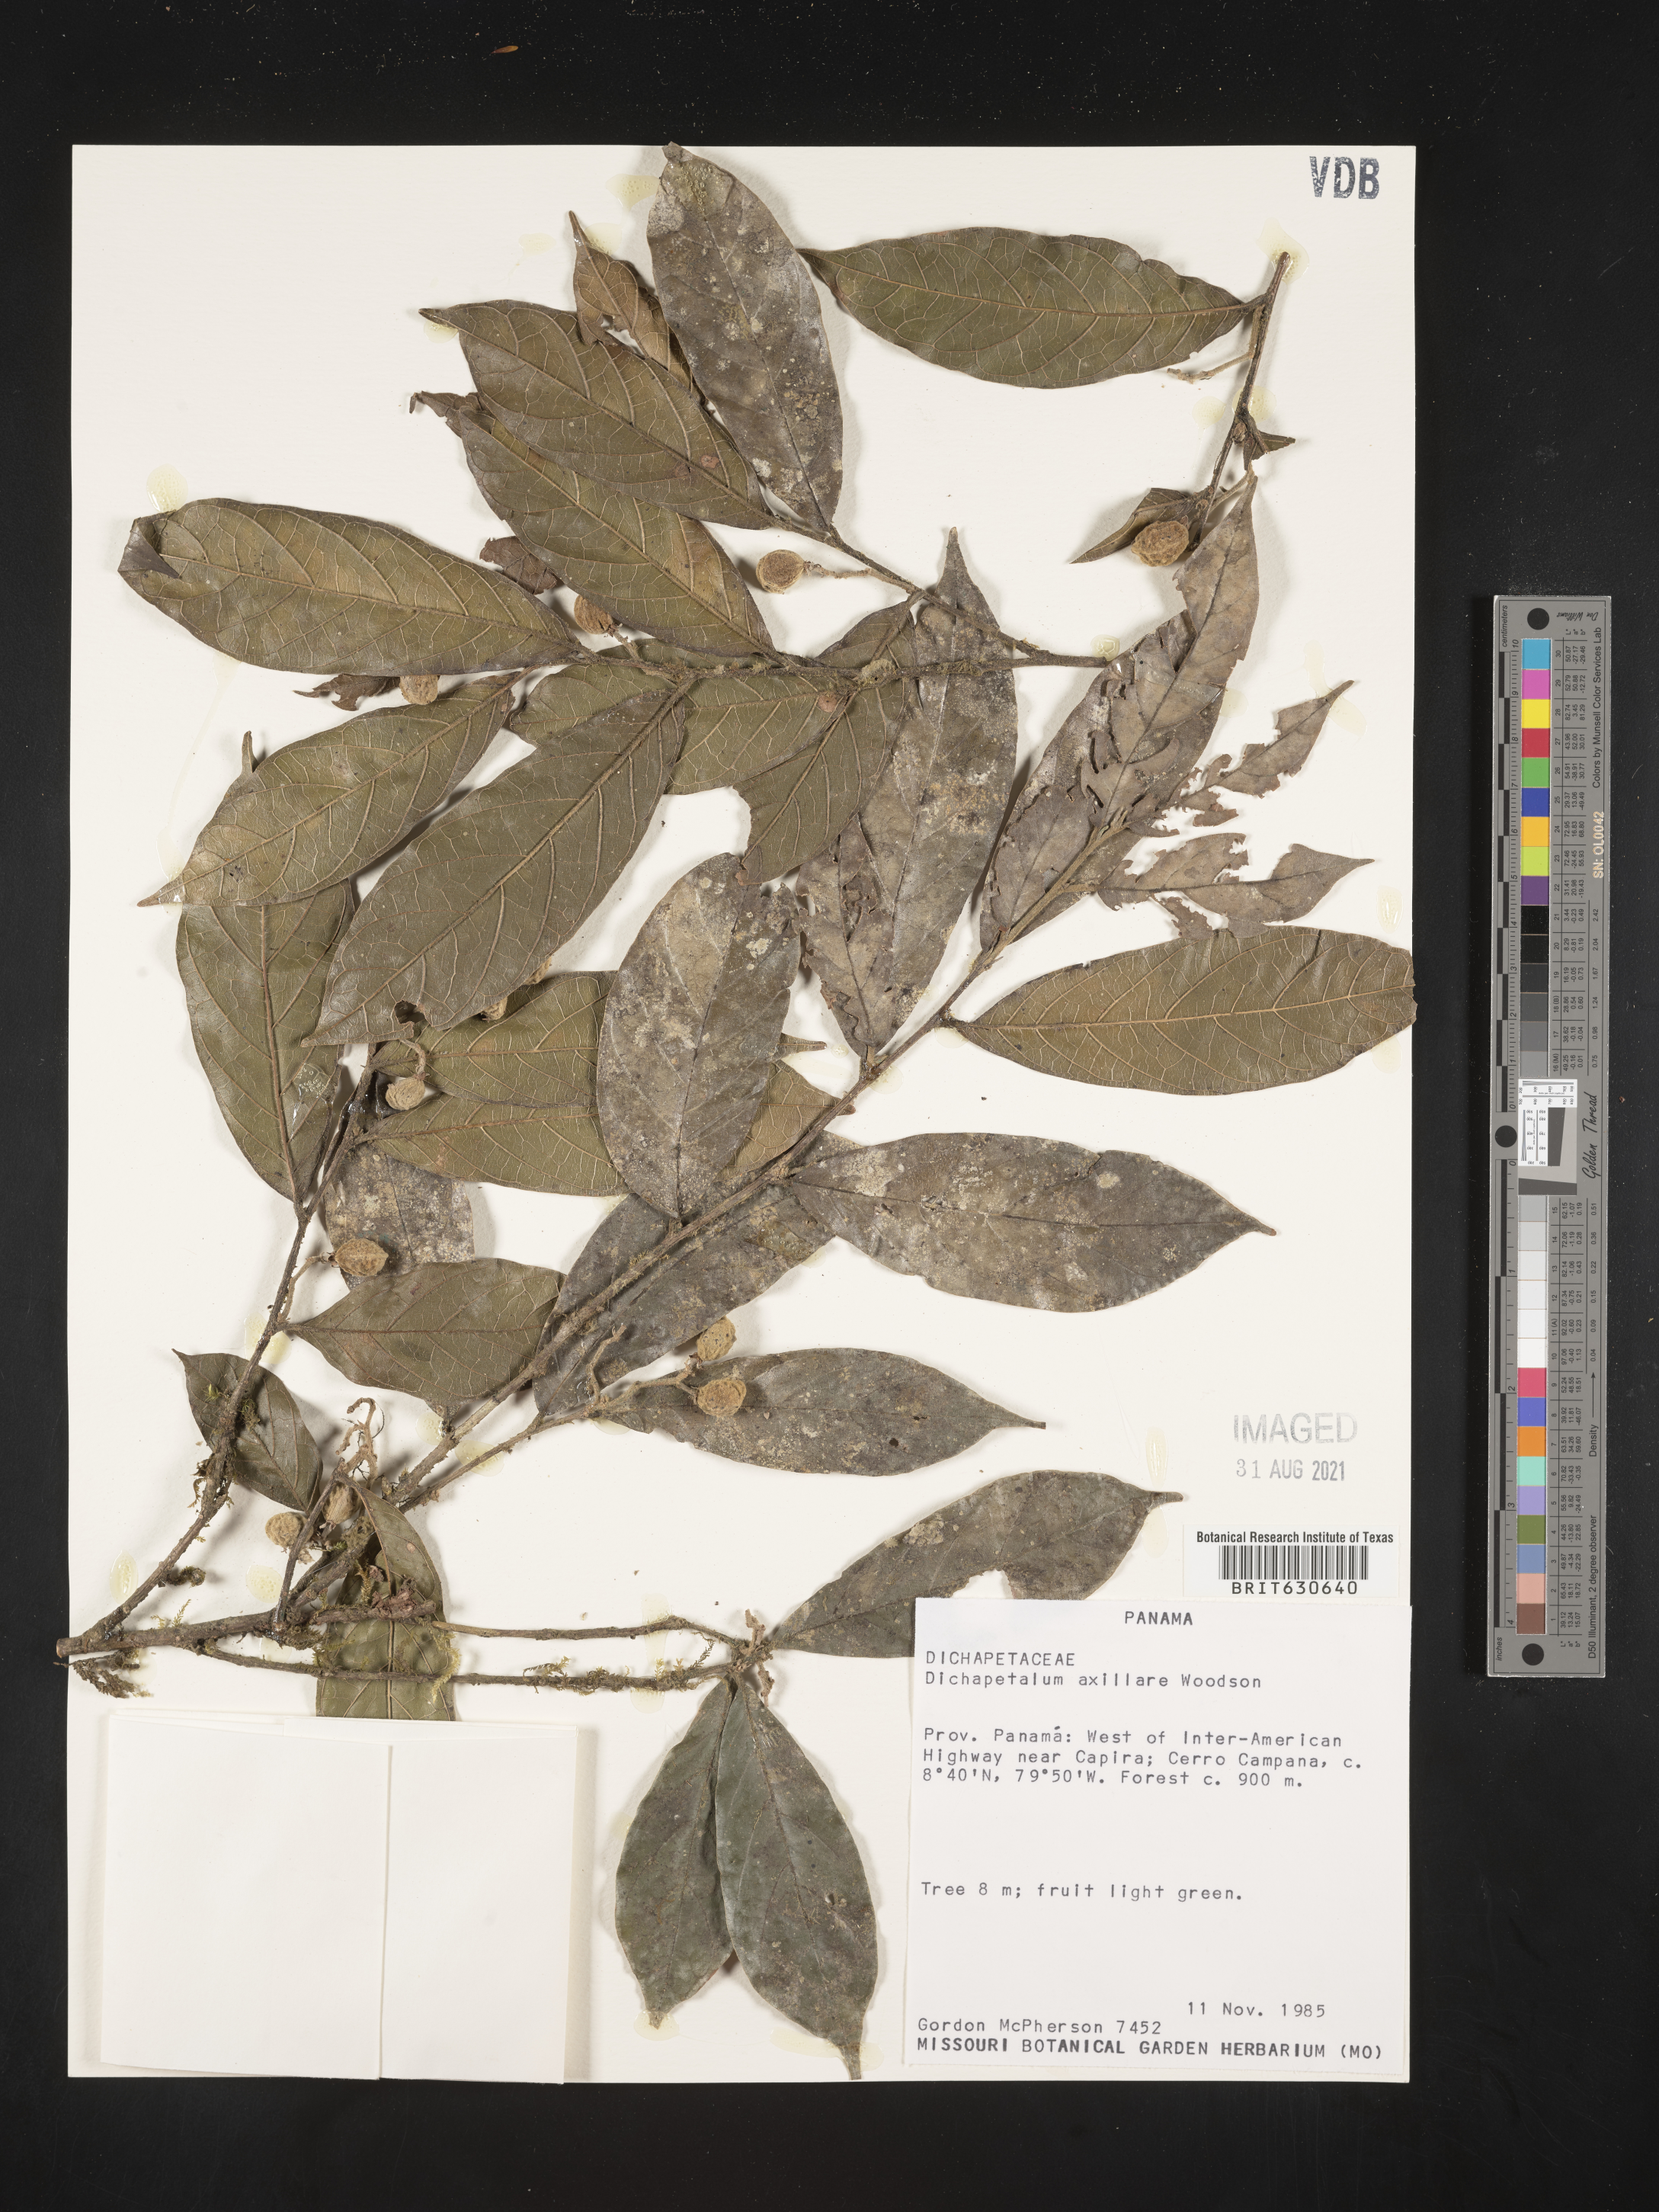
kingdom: Plantae
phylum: Tracheophyta
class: Magnoliopsida
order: Malpighiales
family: Dichapetalaceae
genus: Dichapetalum
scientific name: Dichapetalum
